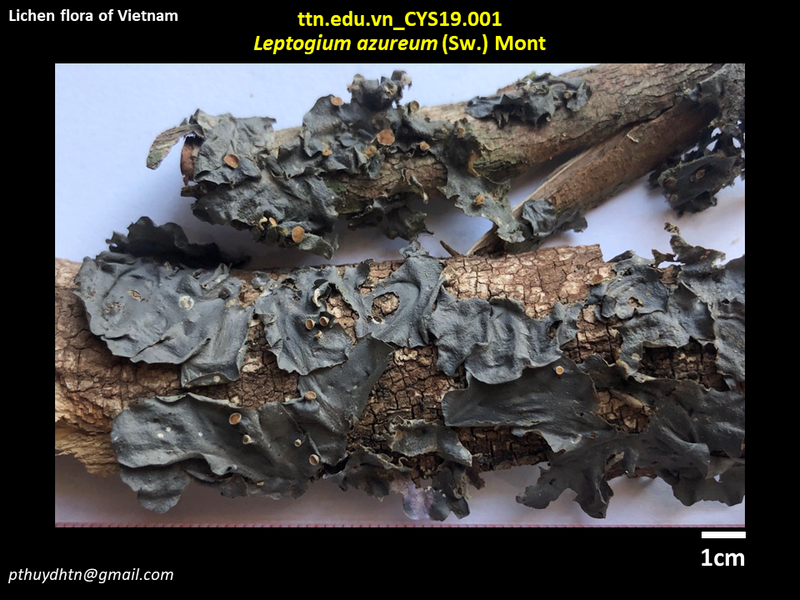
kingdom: Fungi
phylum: Ascomycota
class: Lecanoromycetes
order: Peltigerales
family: Collemataceae
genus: Leptogium
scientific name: Leptogium azureum
